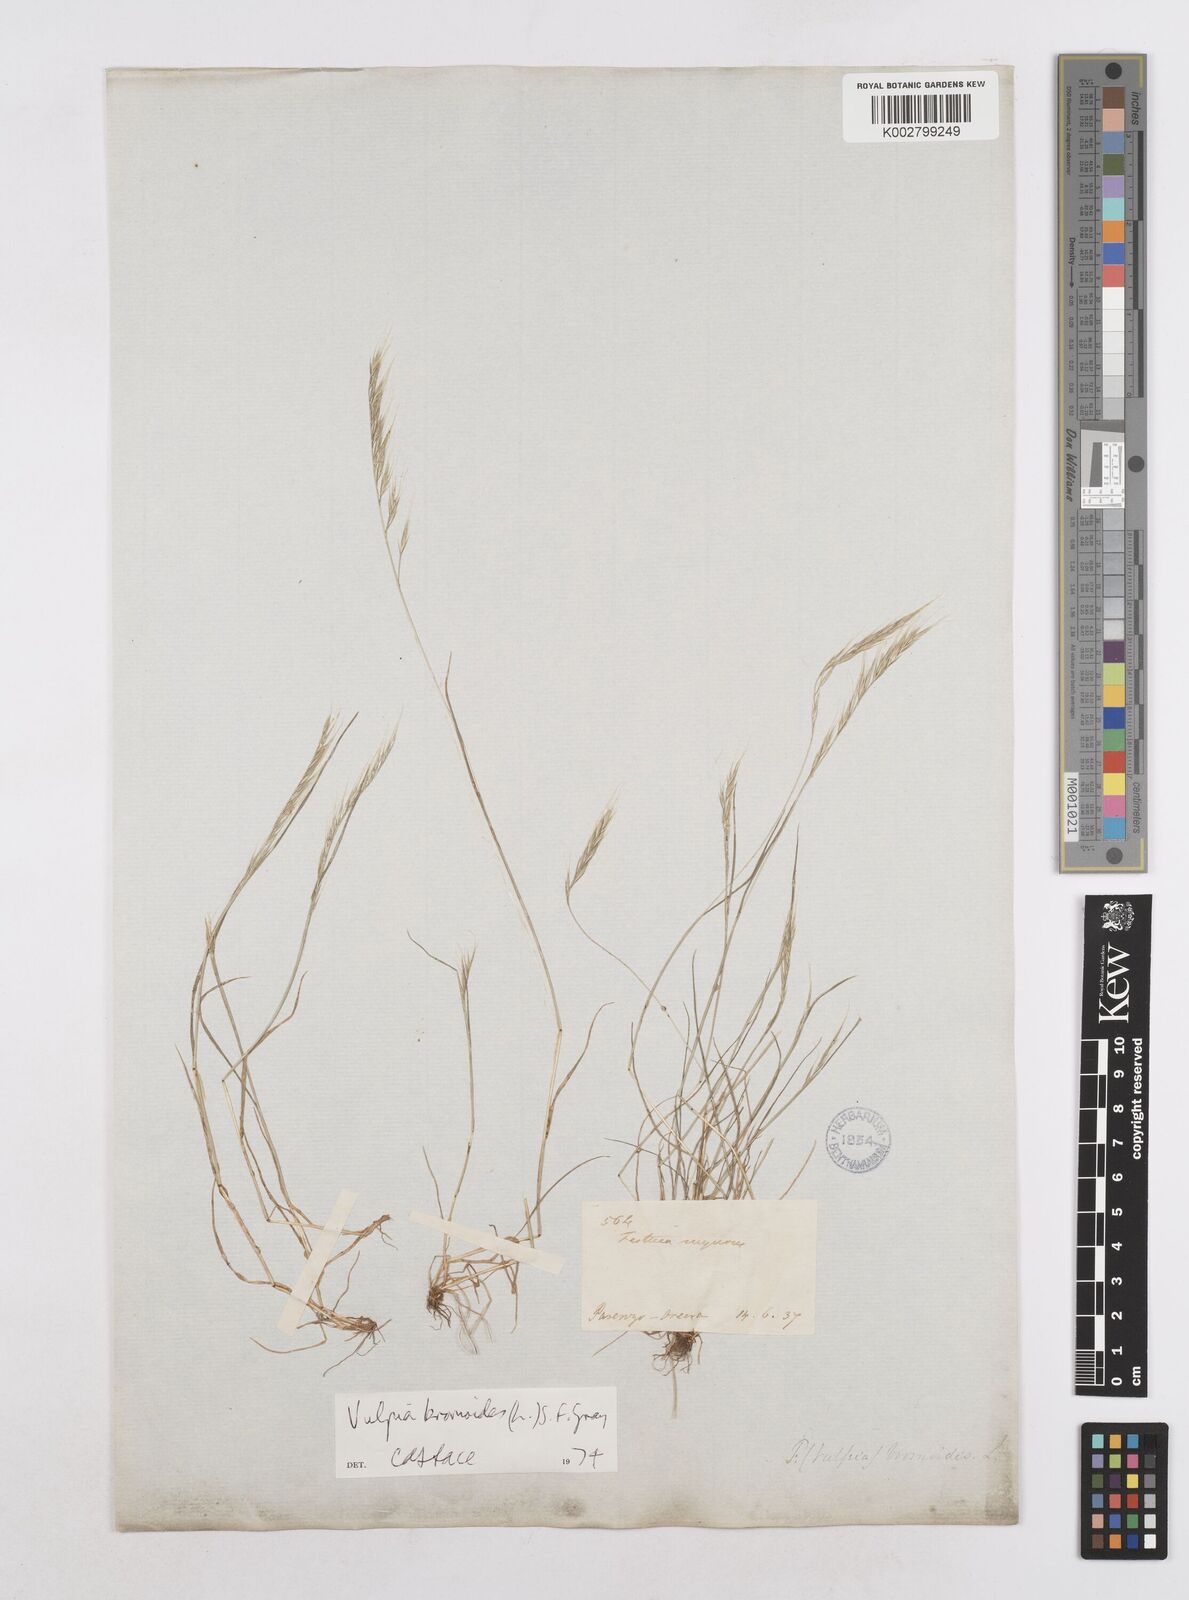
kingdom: Plantae
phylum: Tracheophyta
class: Liliopsida
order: Poales
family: Poaceae
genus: Festuca
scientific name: Festuca bromoides
